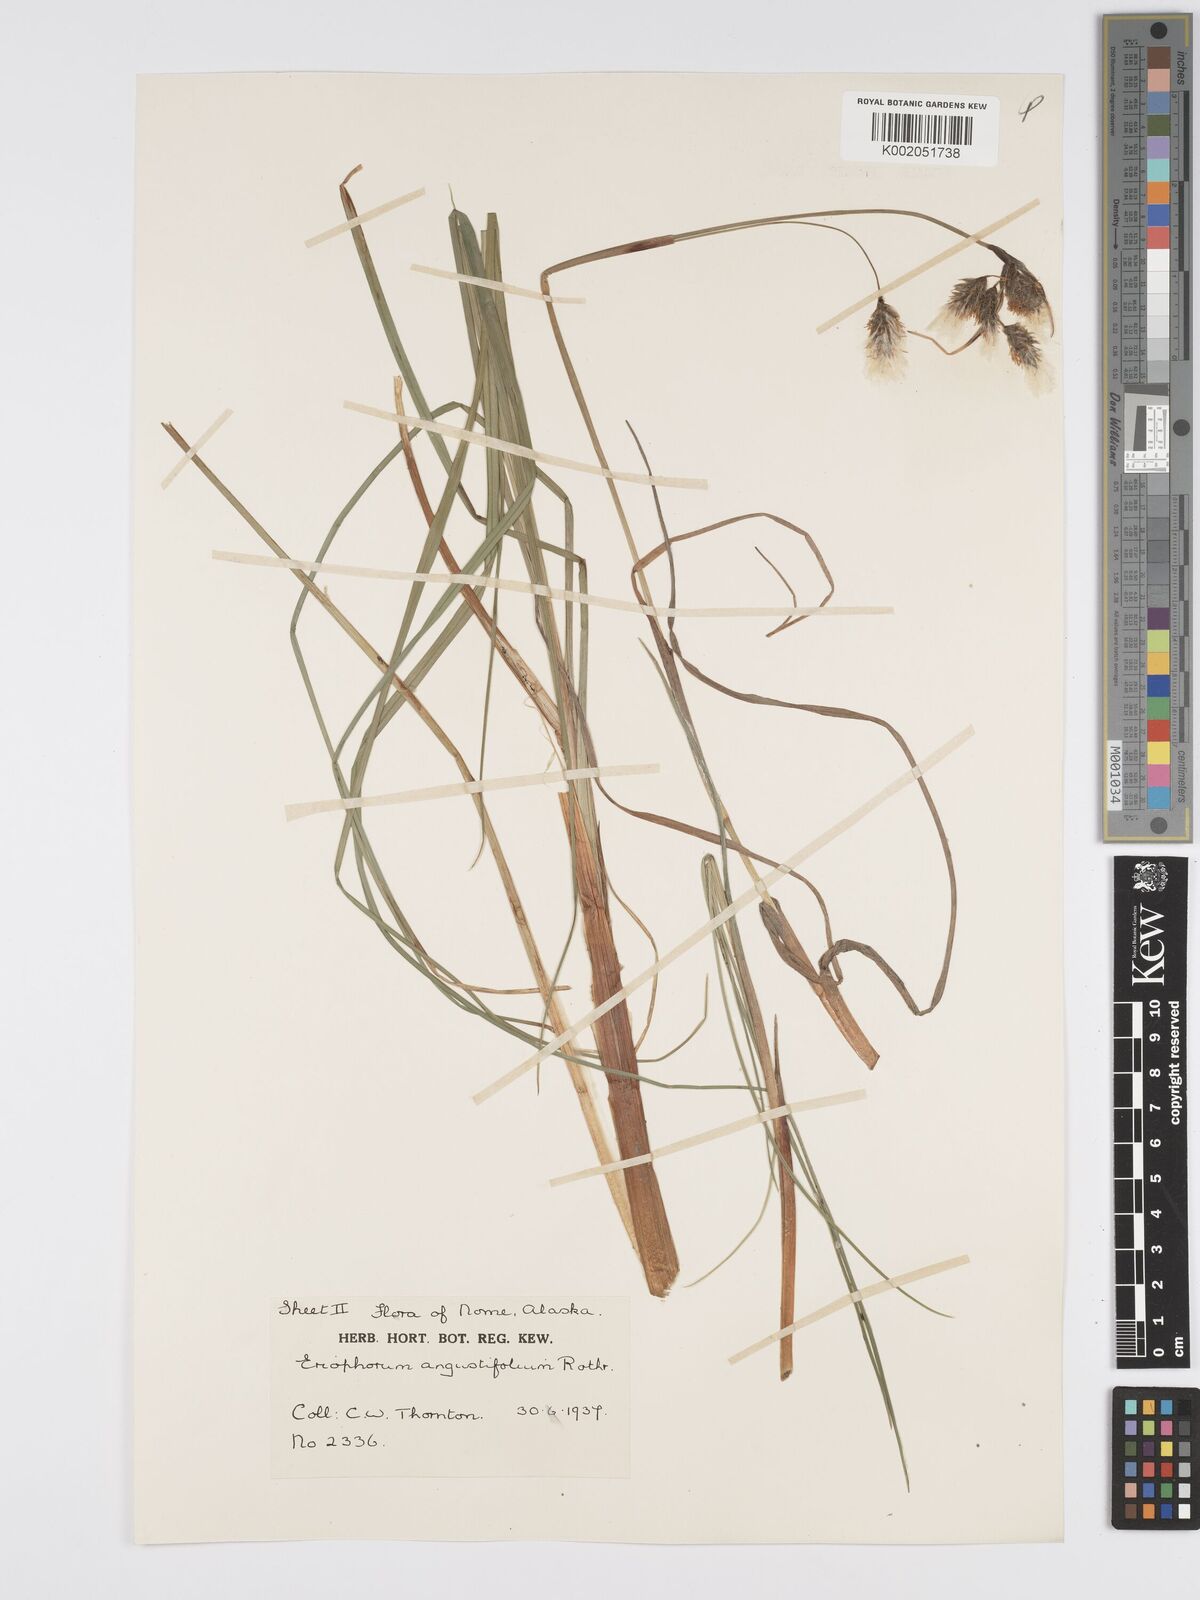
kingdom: Plantae
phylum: Tracheophyta
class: Liliopsida
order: Poales
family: Cyperaceae
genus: Eriophorum
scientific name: Eriophorum angustifolium
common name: Common cottongrass
